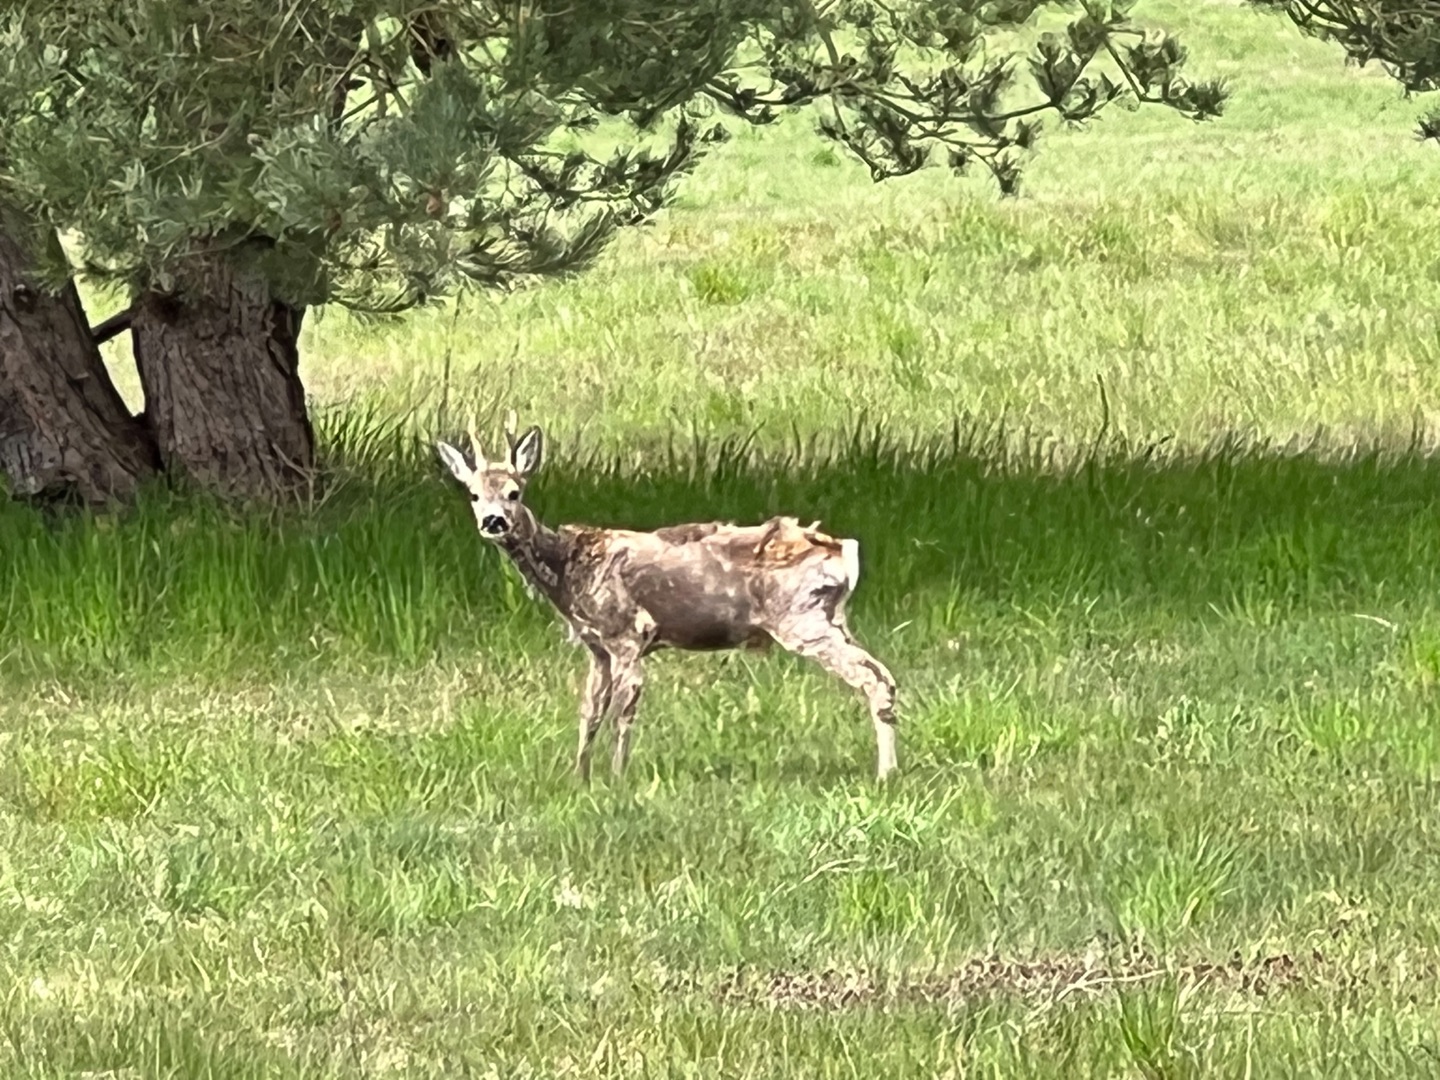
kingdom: Animalia
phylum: Chordata
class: Mammalia
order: Artiodactyla
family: Cervidae
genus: Capreolus
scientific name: Capreolus capreolus
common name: Rådyr
